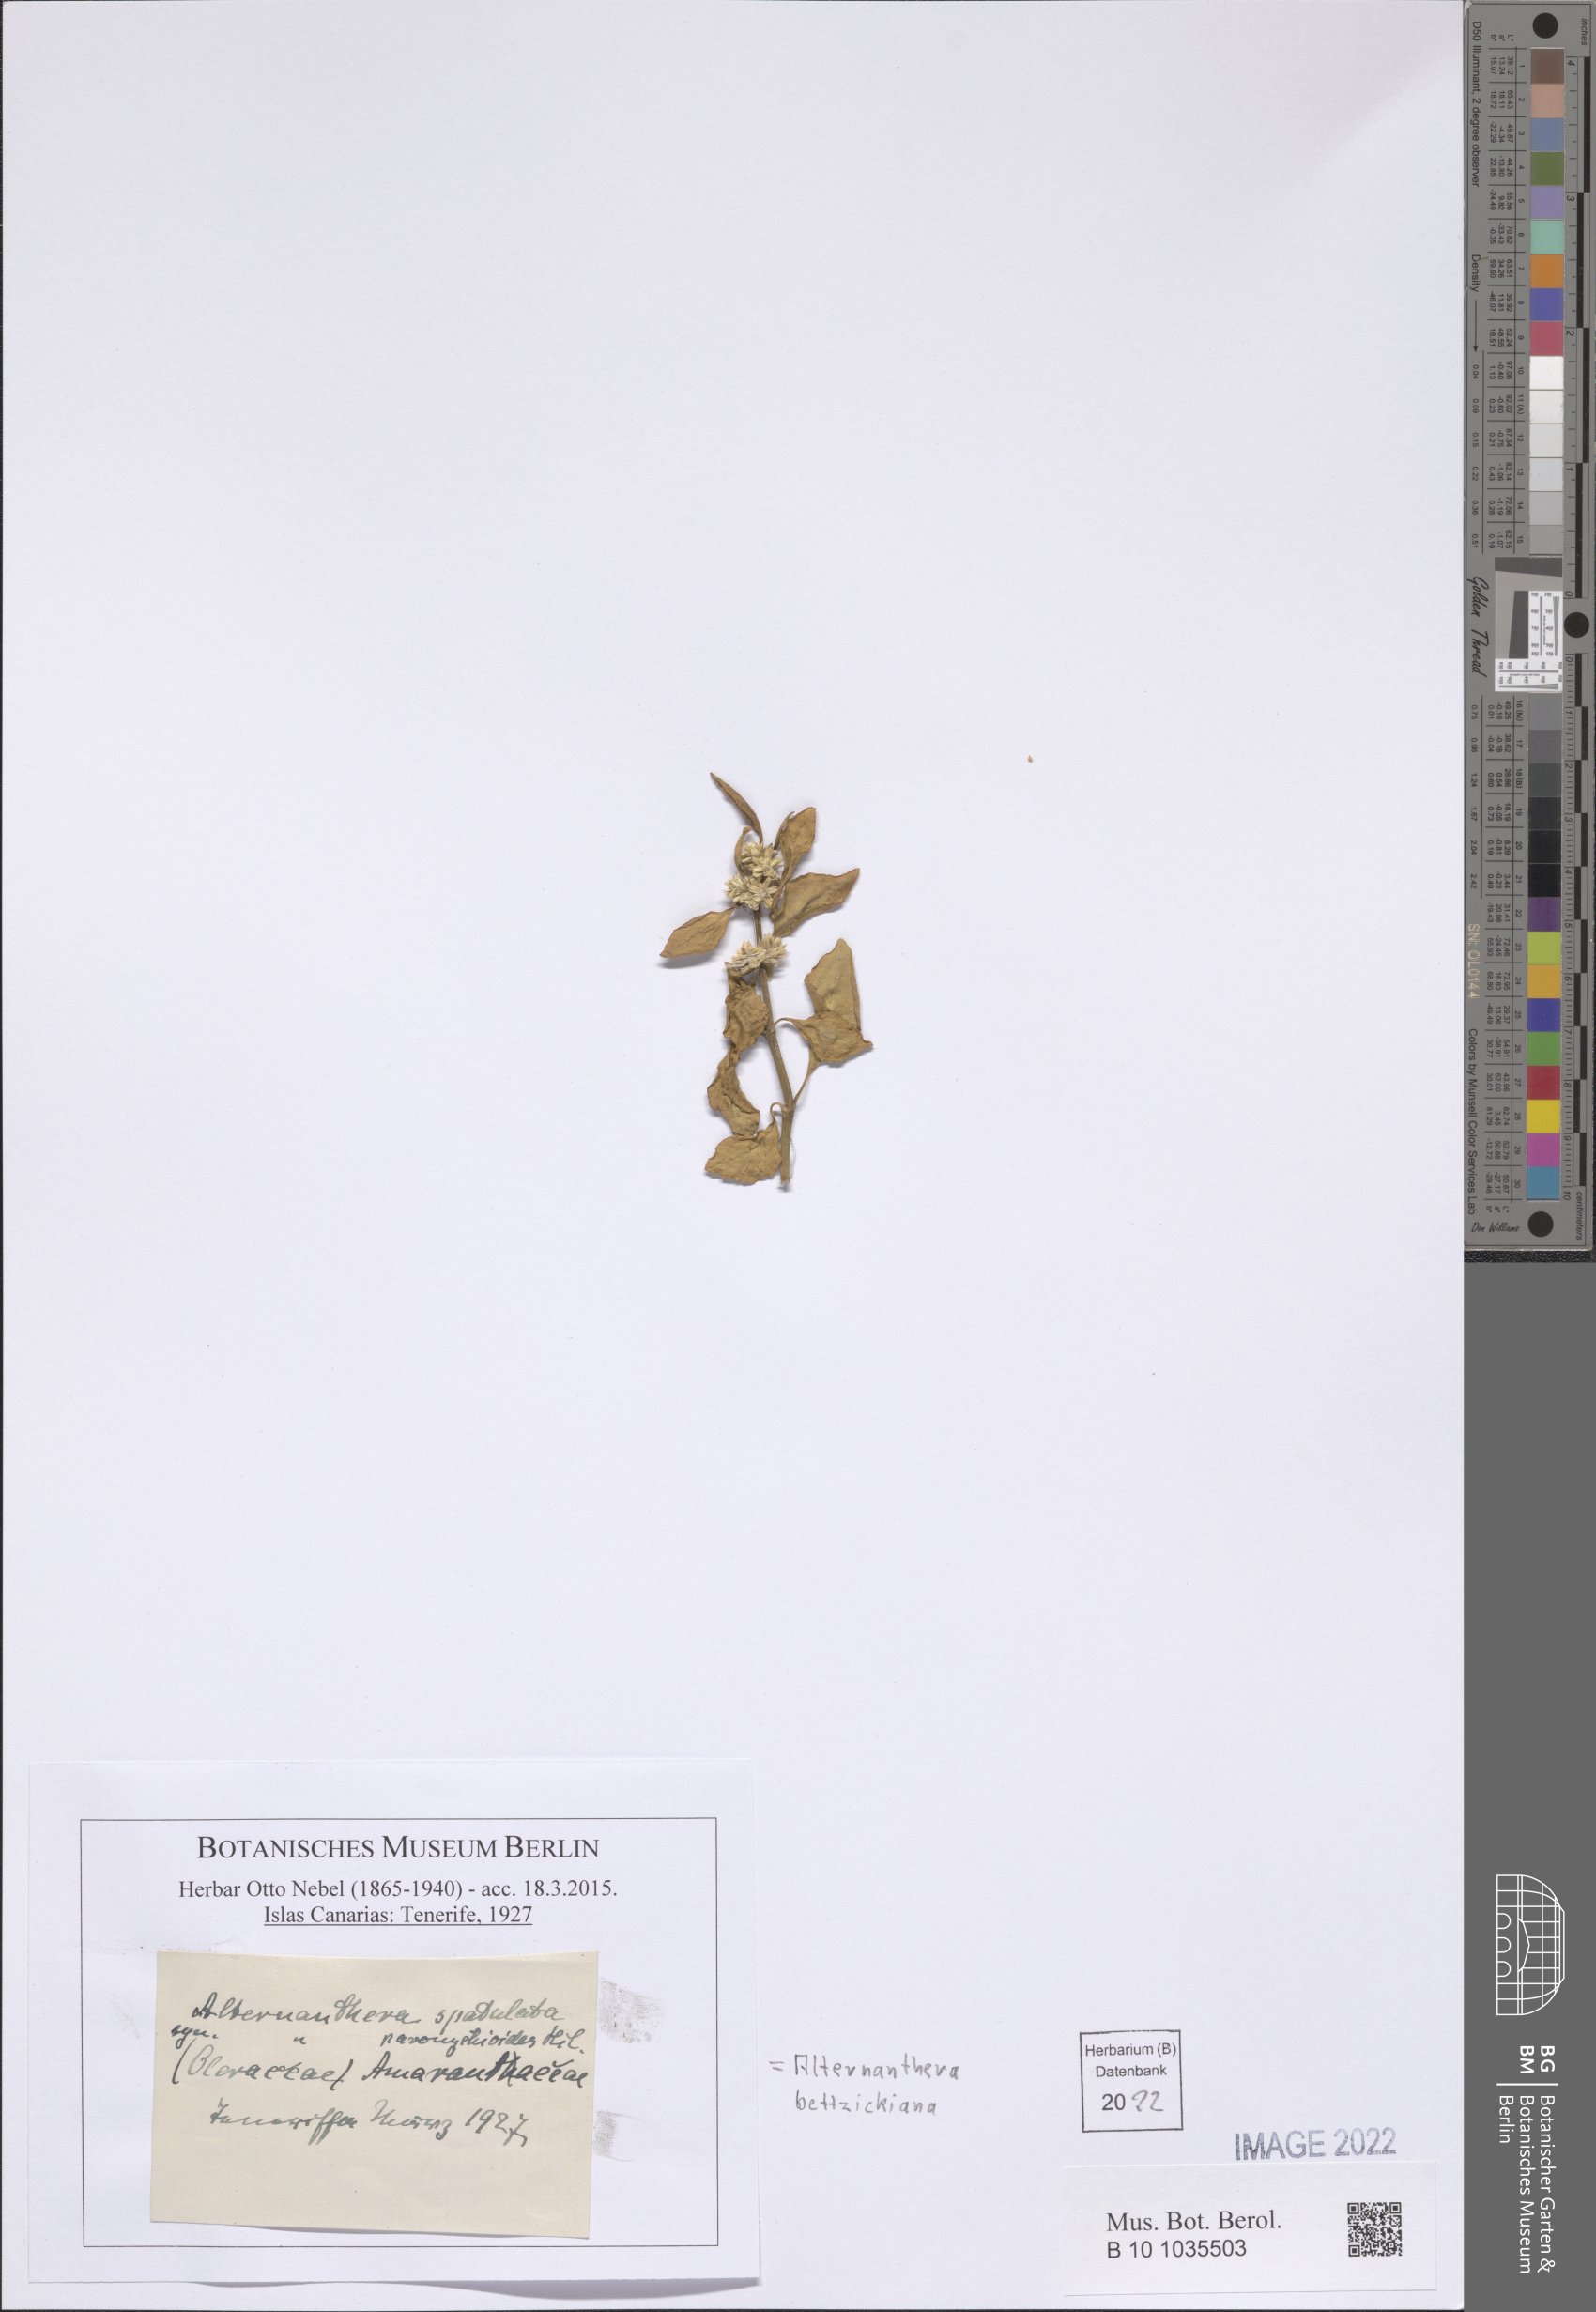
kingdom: Plantae
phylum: Tracheophyta
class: Magnoliopsida
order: Caryophyllales
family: Amaranthaceae
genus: Alternanthera
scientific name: Alternanthera bettzickiana
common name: Calico-plant
